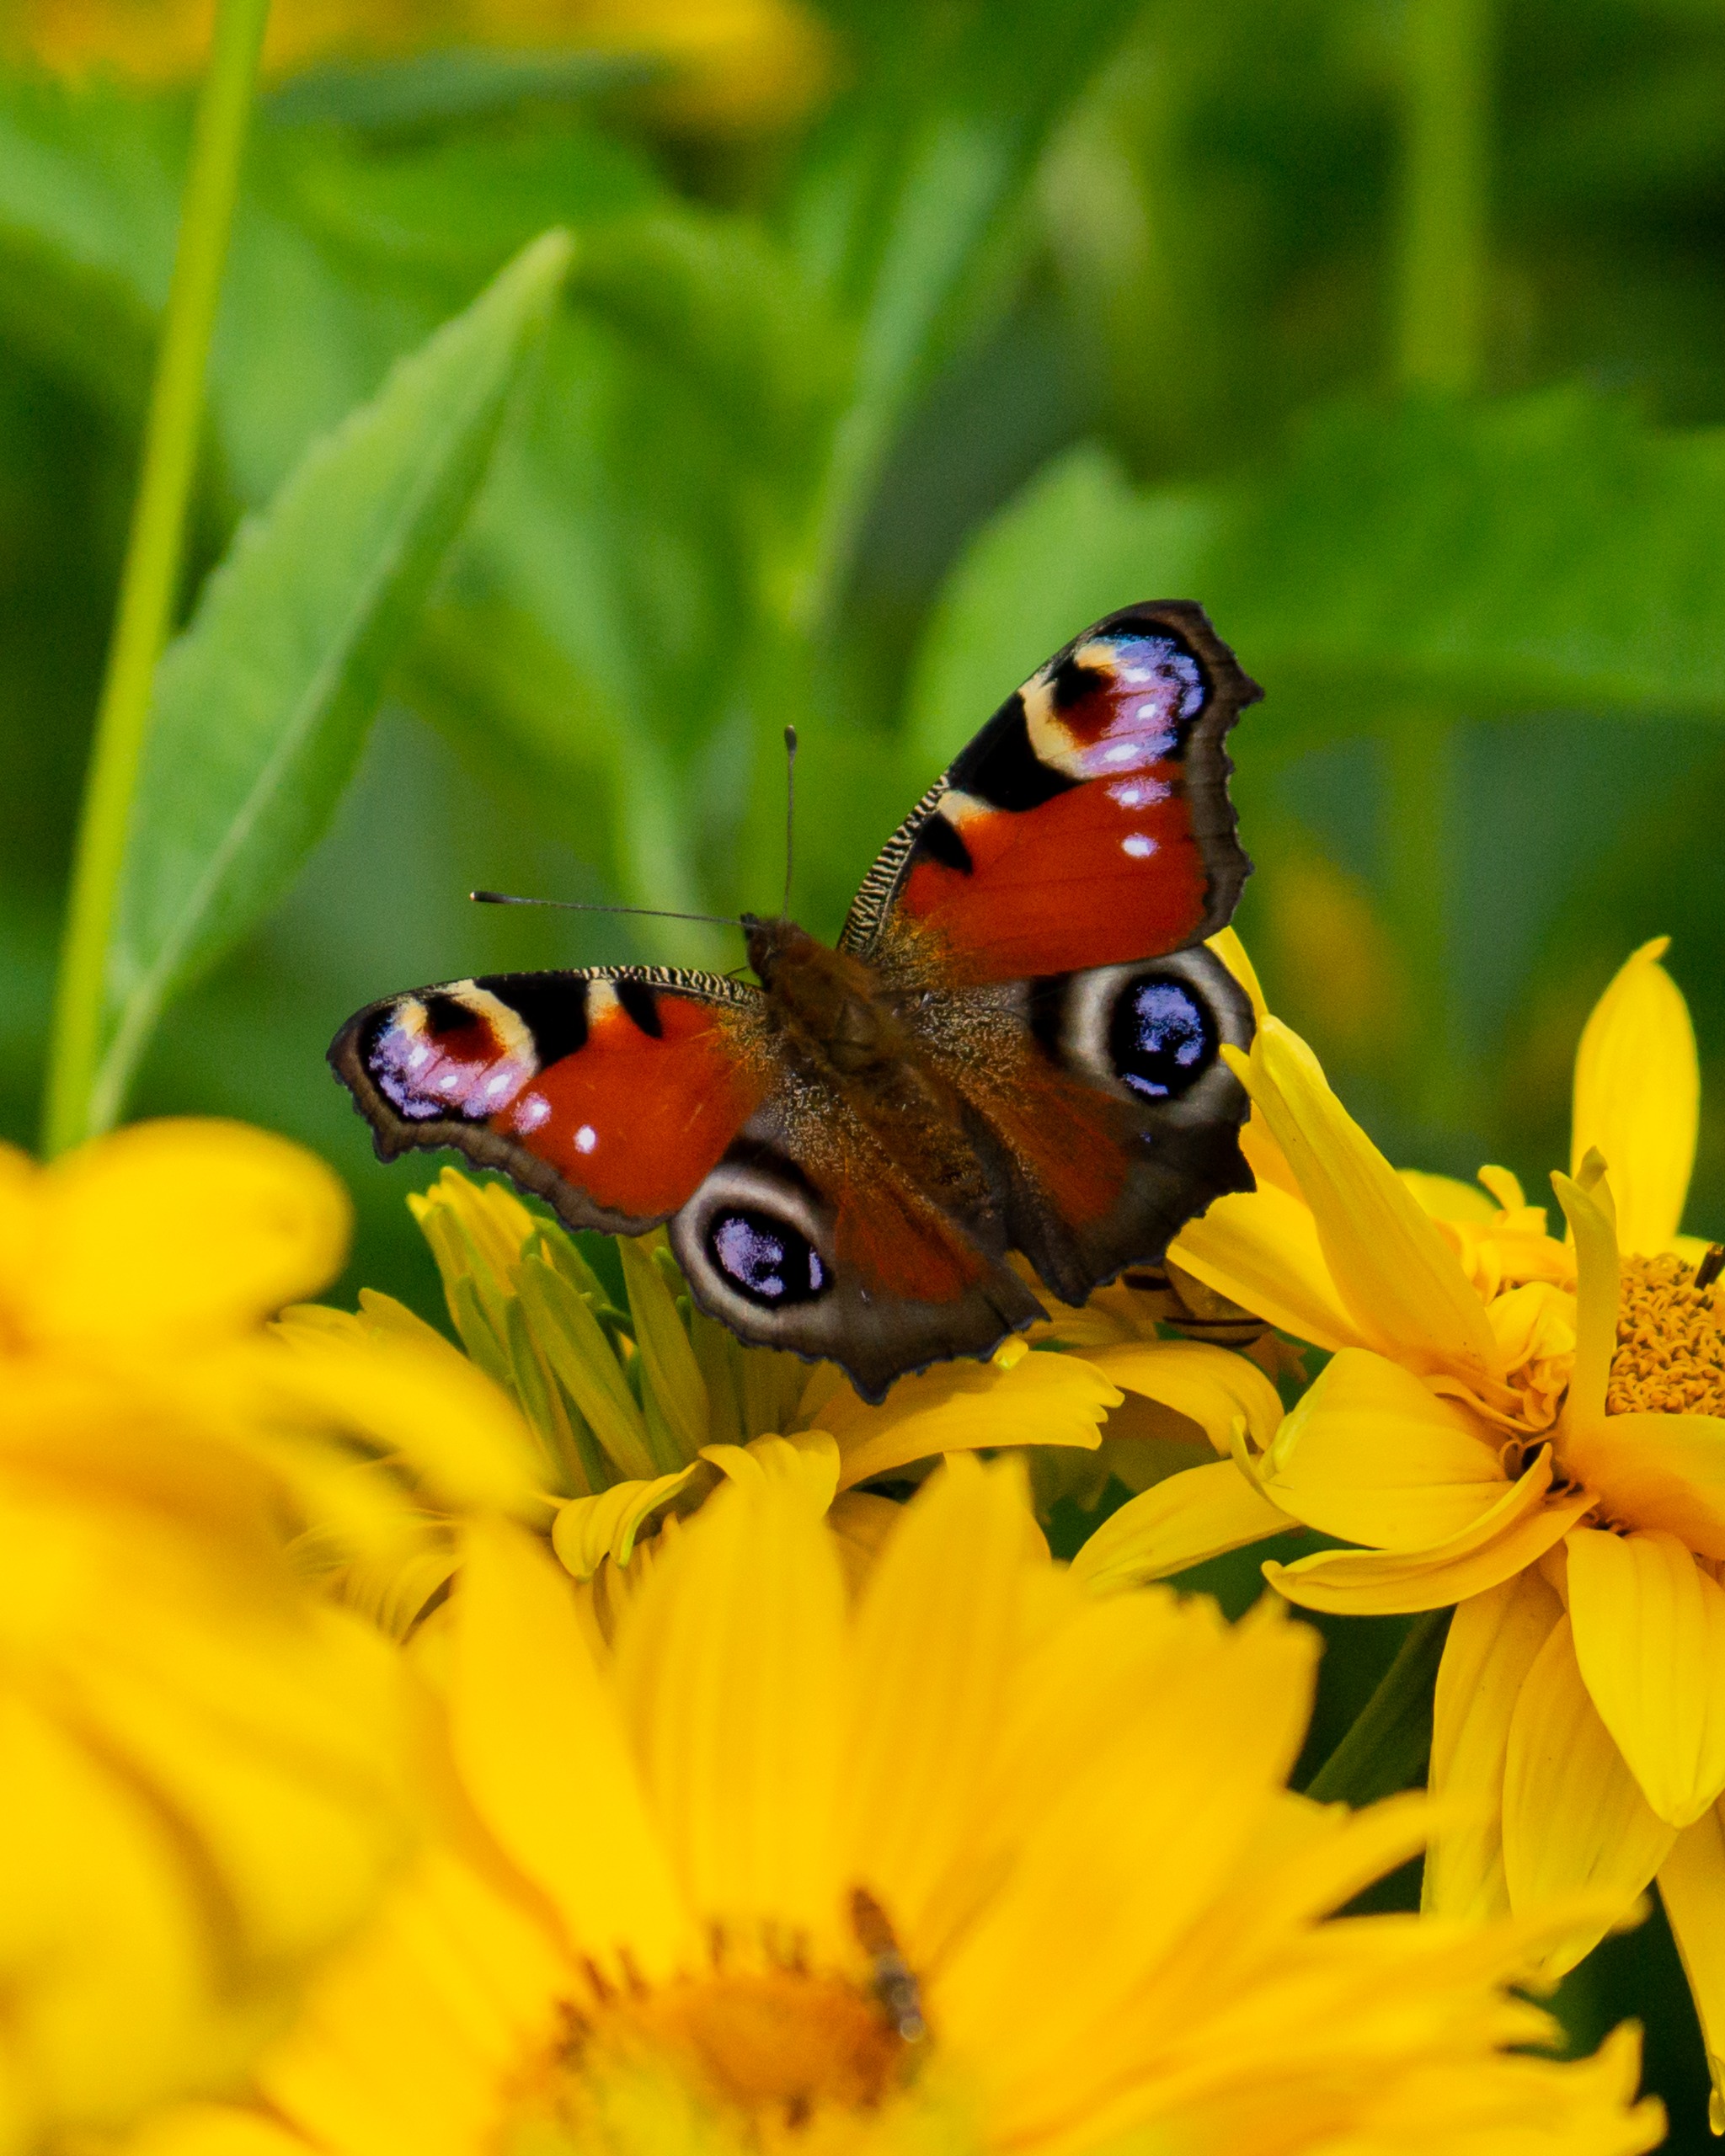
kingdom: Animalia
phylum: Arthropoda
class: Insecta
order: Lepidoptera
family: Nymphalidae
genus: Aglais
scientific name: Aglais io
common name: Dagpåfugleøje
